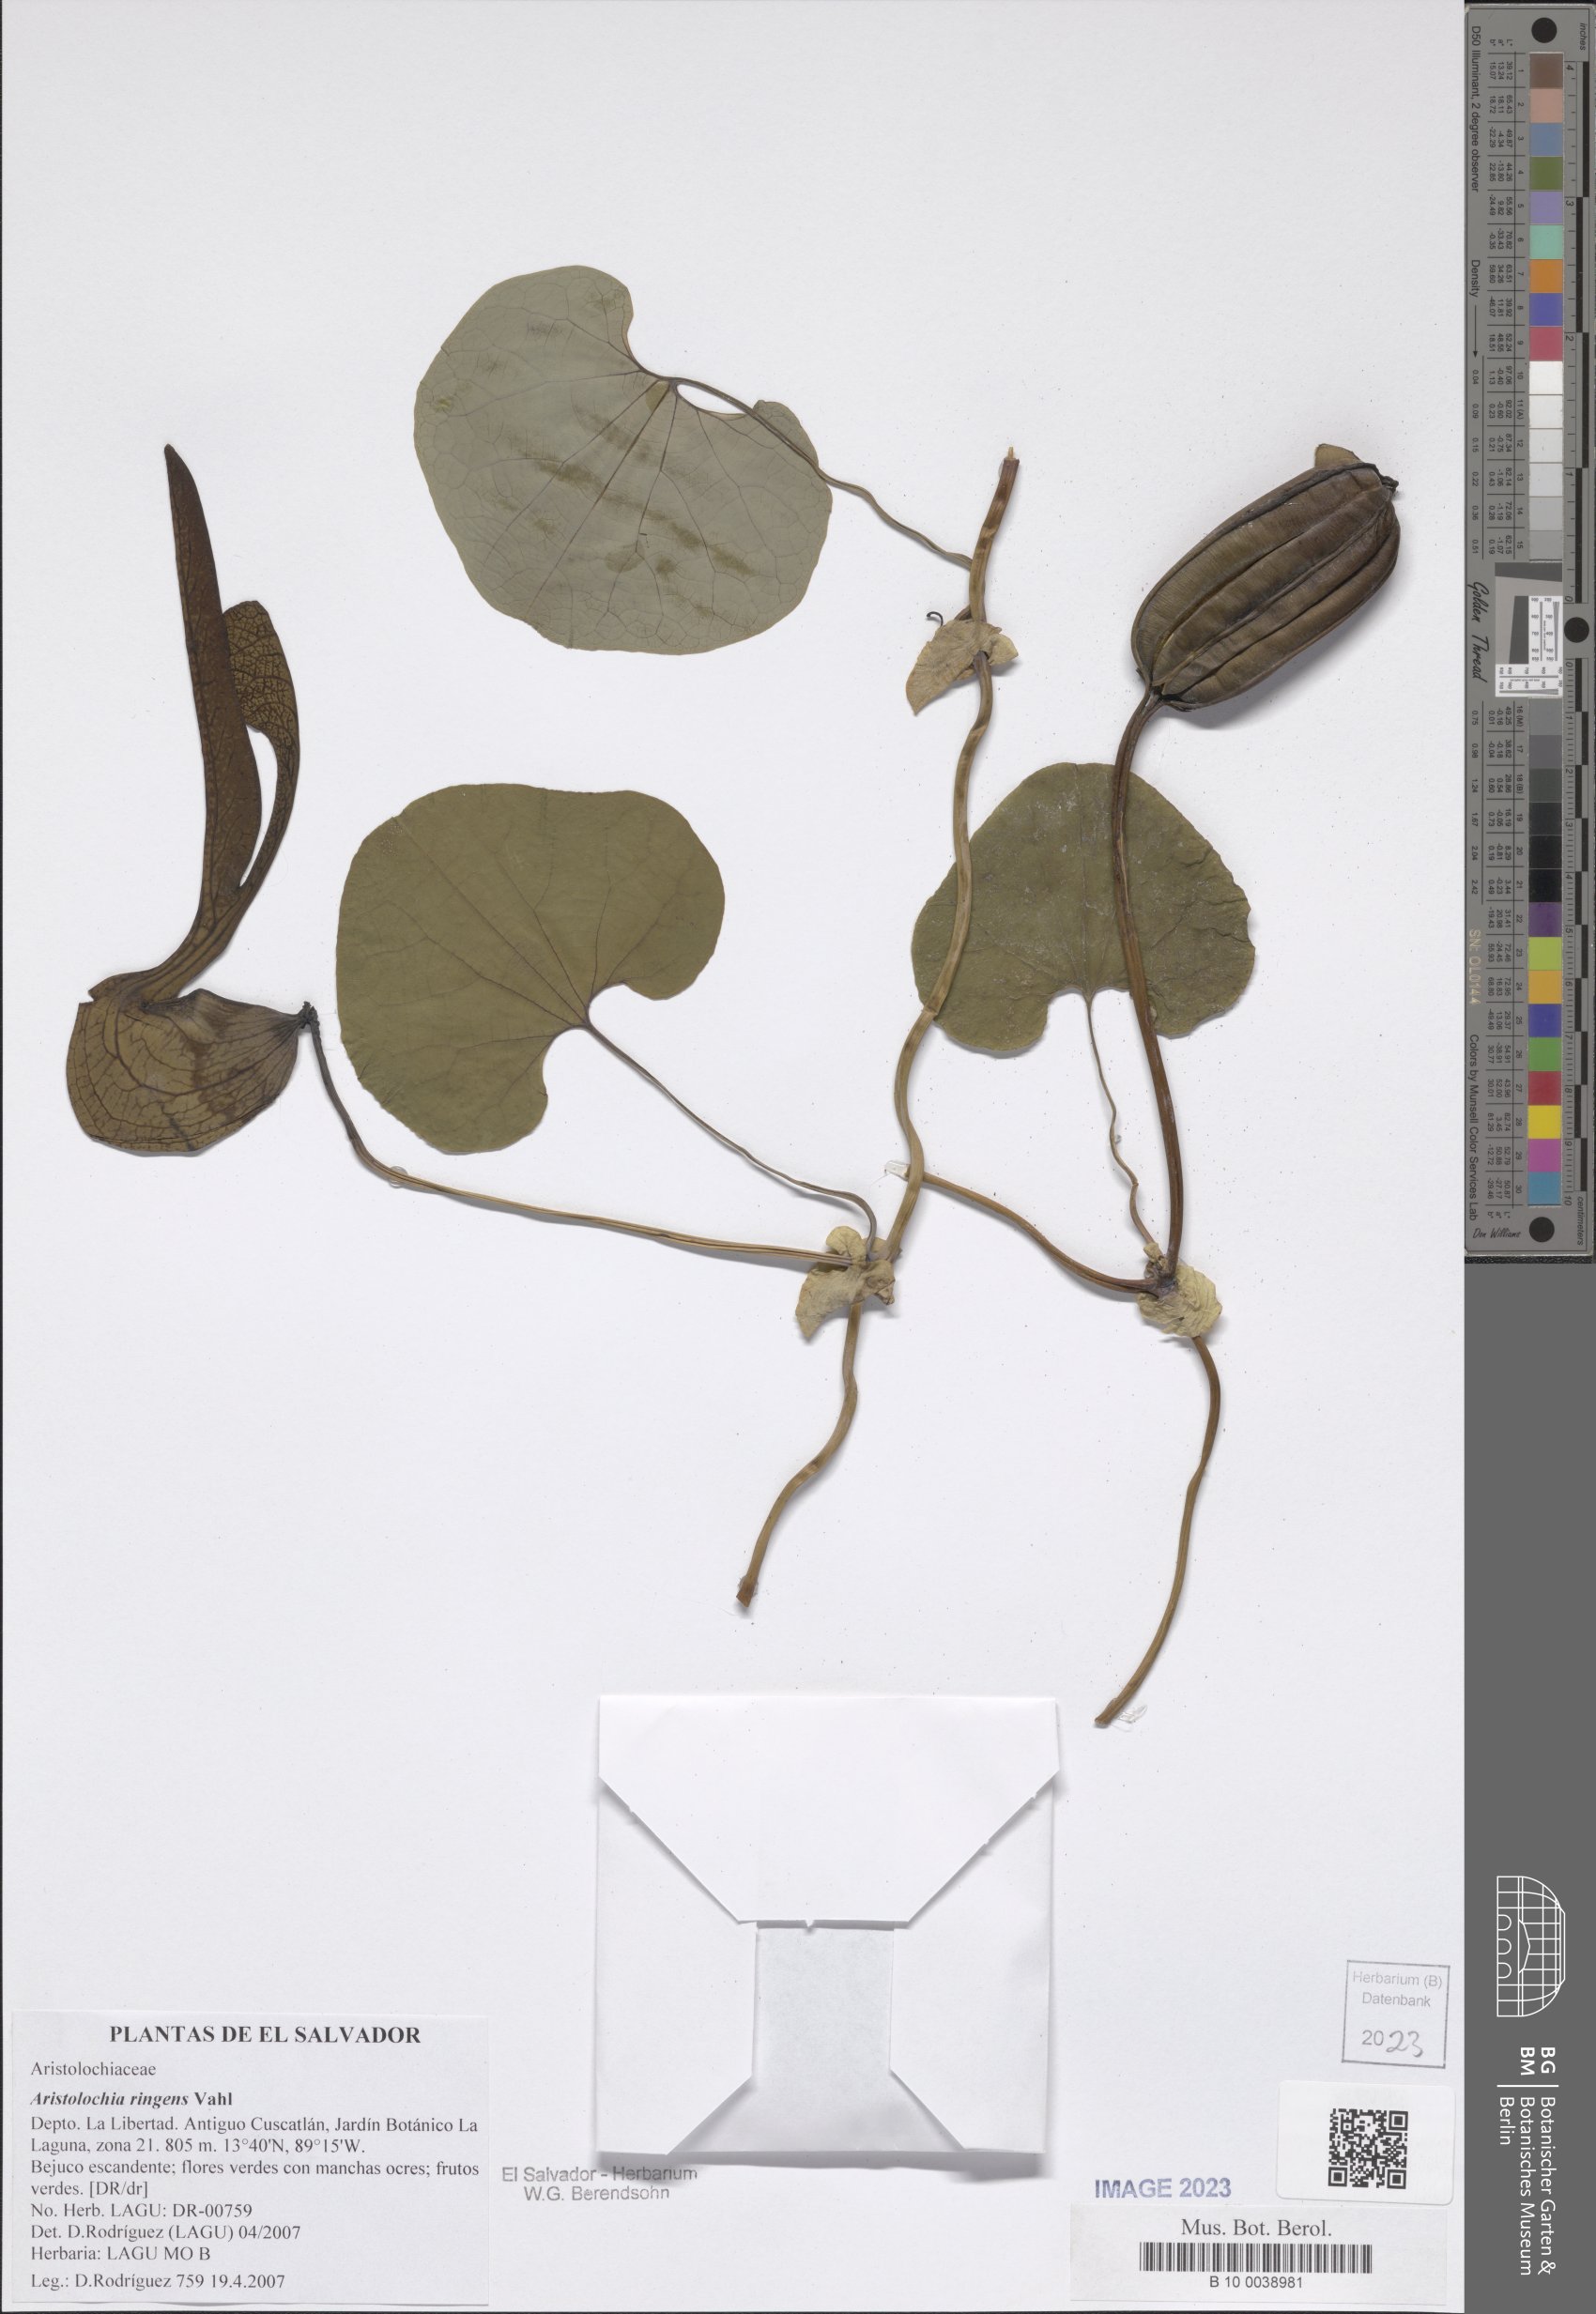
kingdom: Plantae
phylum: Tracheophyta
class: Magnoliopsida
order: Piperales
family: Aristolochiaceae
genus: Aristolochia
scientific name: Aristolochia ringens
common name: Gaping dutchman's pipe
